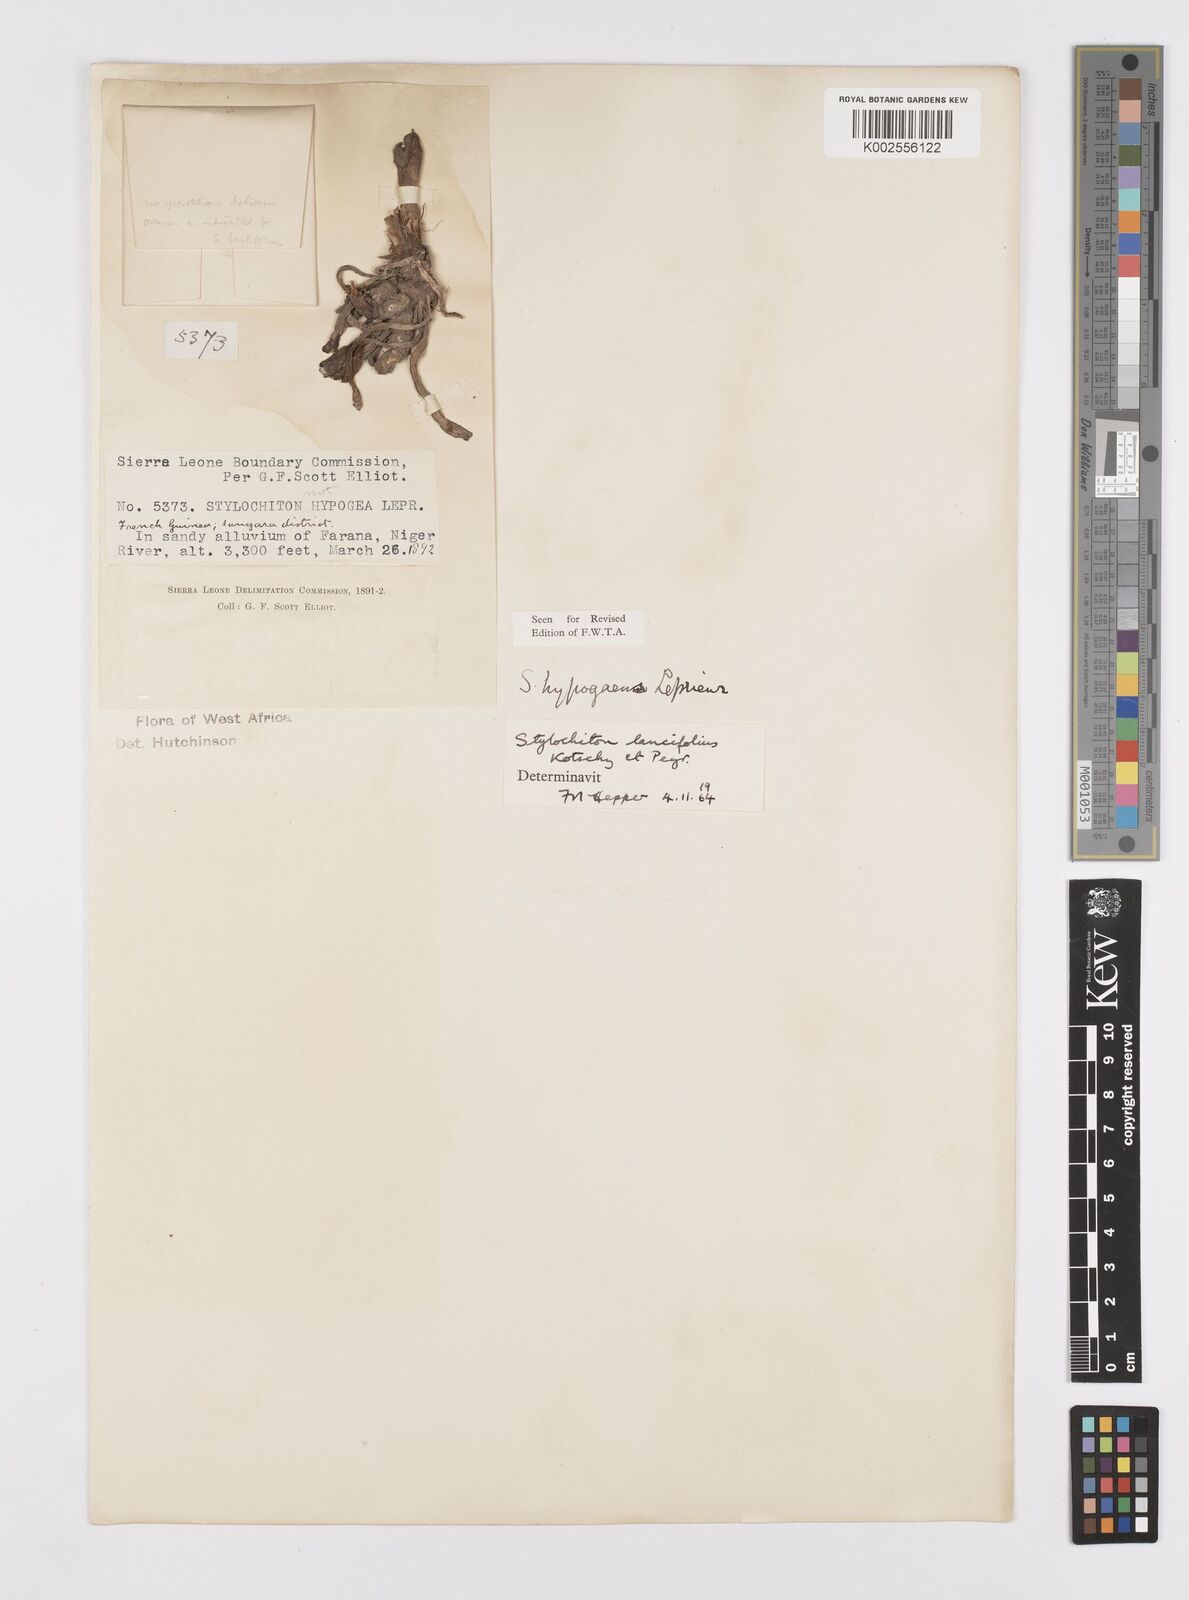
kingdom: Plantae
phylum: Tracheophyta
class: Liliopsida
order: Alismatales
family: Araceae
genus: Stylochaeton
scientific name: Stylochaeton lancifolium
